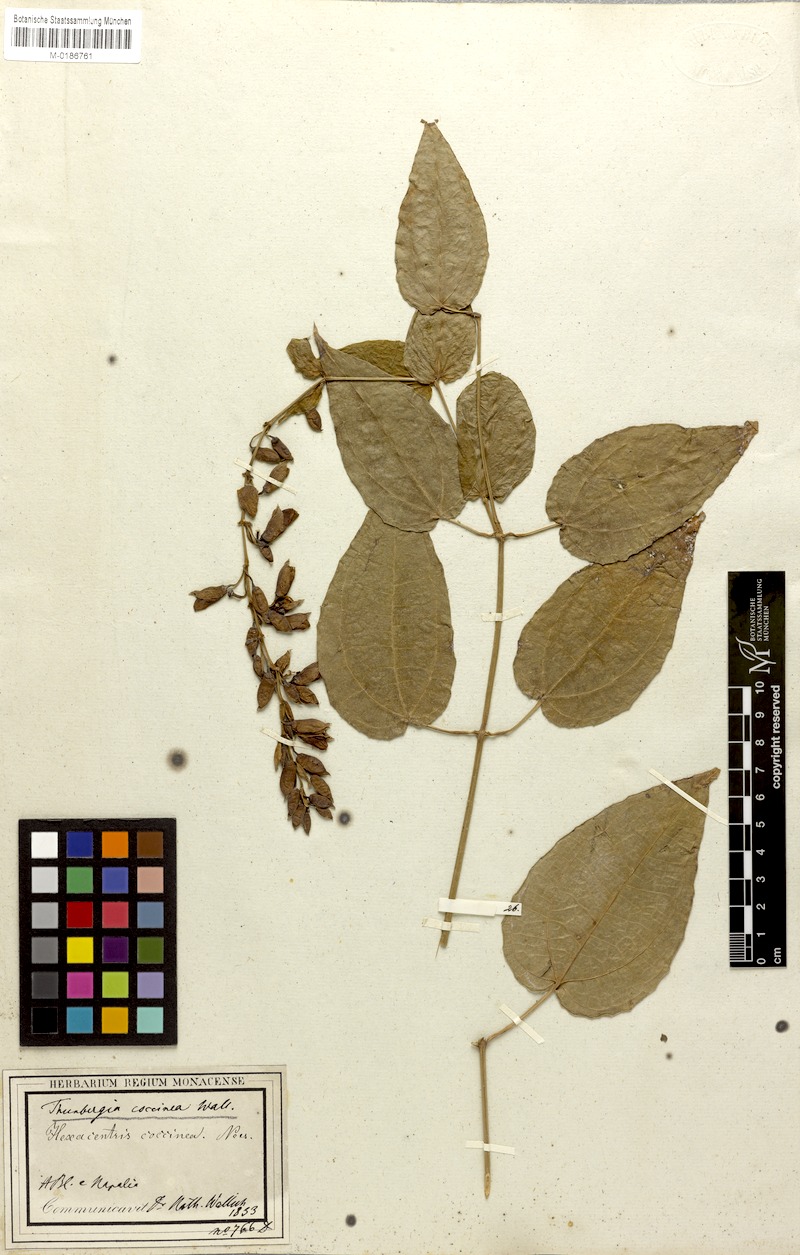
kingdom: Plantae
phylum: Tracheophyta
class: Magnoliopsida
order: Lamiales
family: Acanthaceae
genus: Thunbergia
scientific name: Thunbergia coccinea
